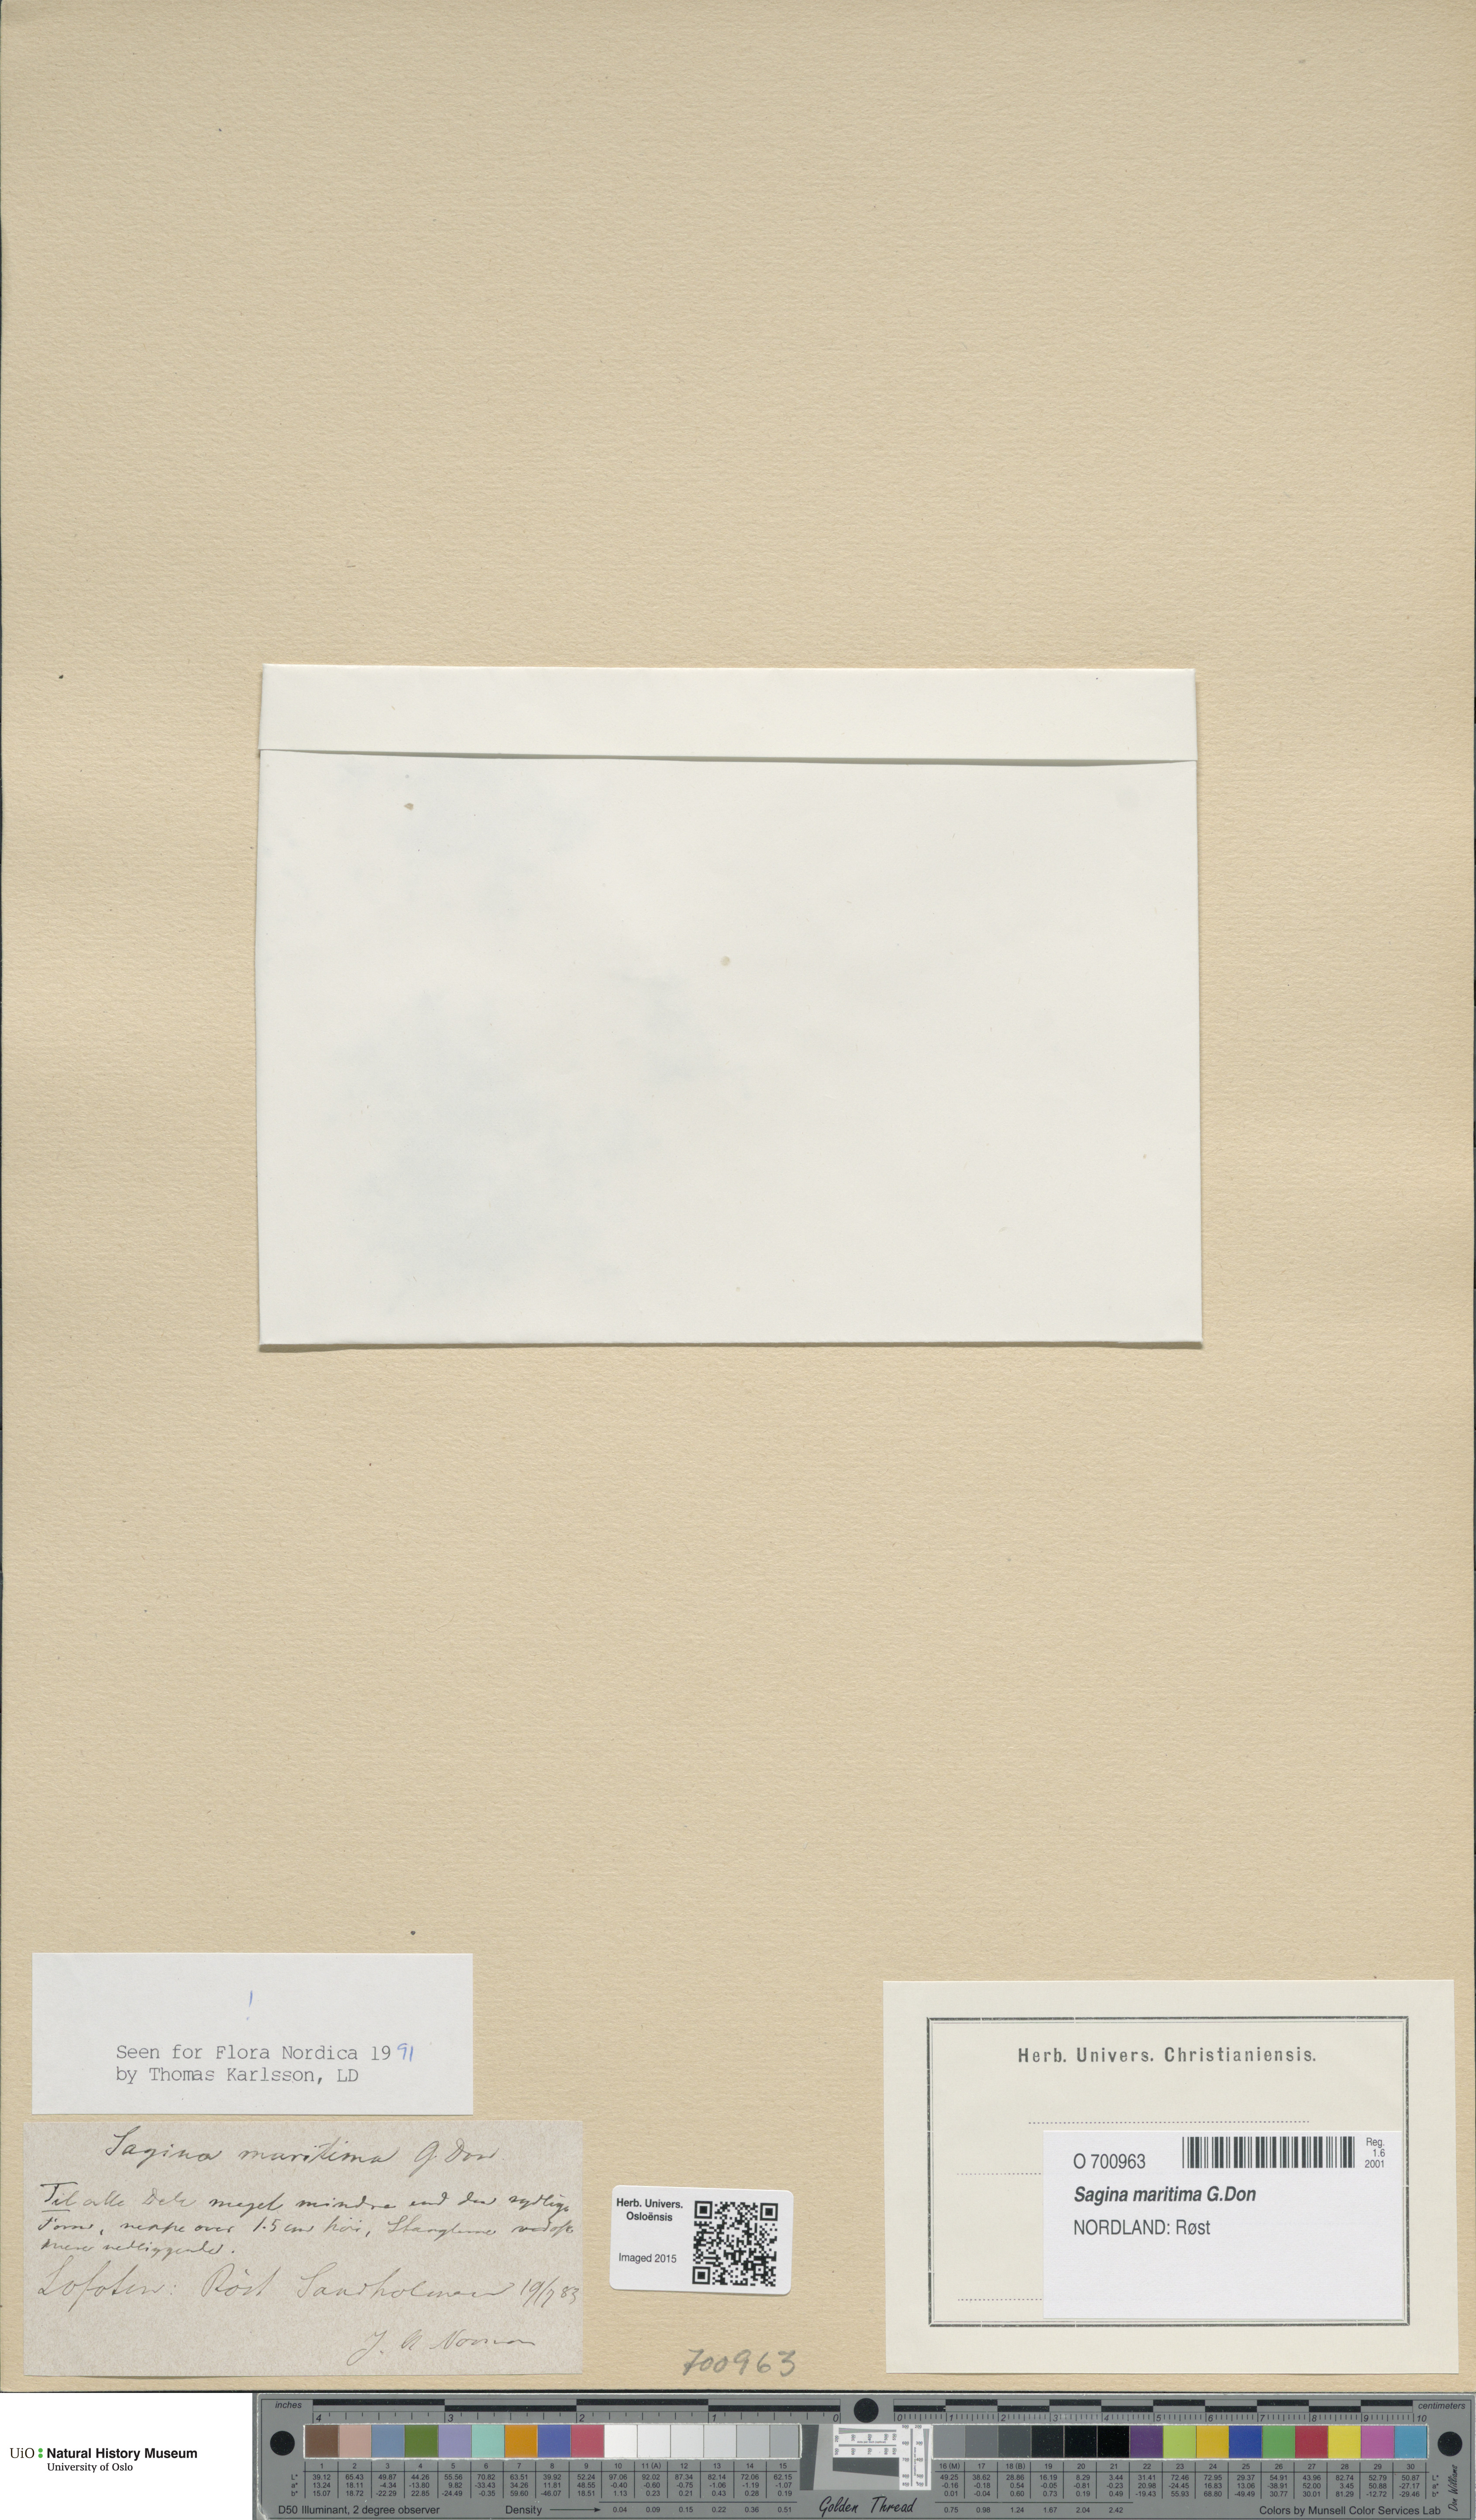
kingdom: Plantae
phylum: Tracheophyta
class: Magnoliopsida
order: Caryophyllales
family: Caryophyllaceae
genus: Sagina
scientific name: Sagina maritima
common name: Sea pearlwort
